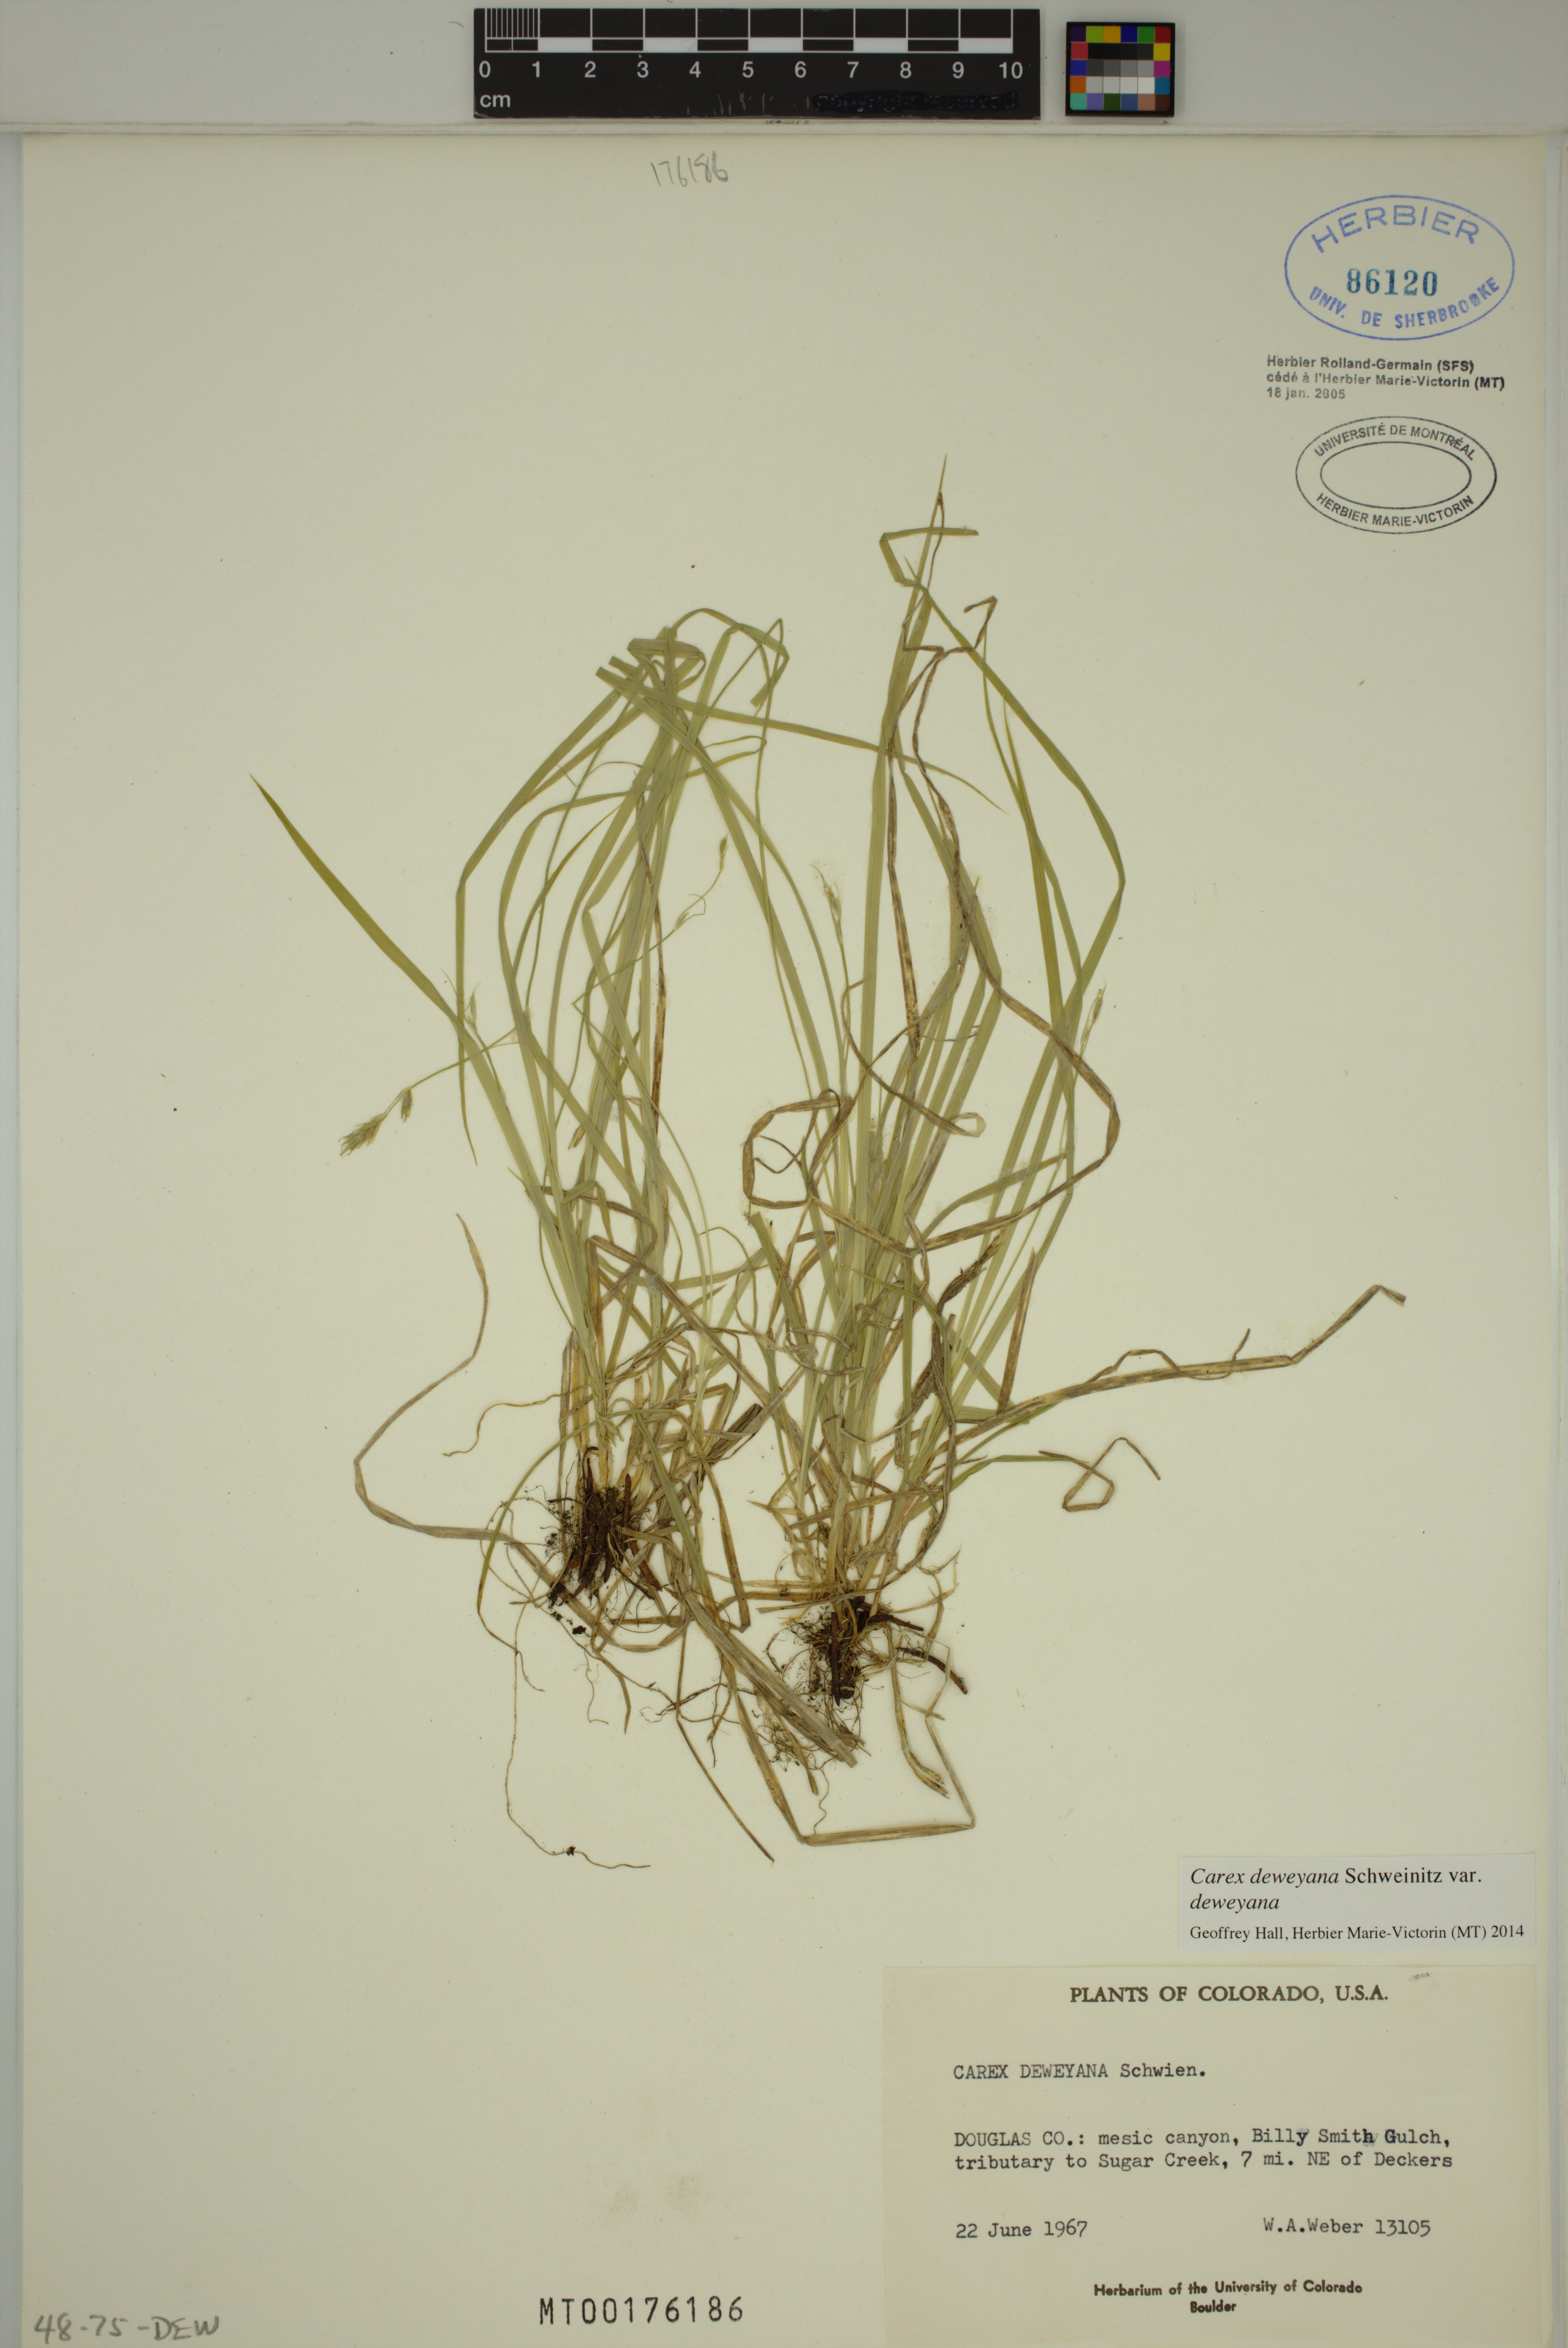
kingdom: Plantae
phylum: Tracheophyta
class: Liliopsida
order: Poales
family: Cyperaceae
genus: Carex
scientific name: Carex deweyana
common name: Dewey's sedge
